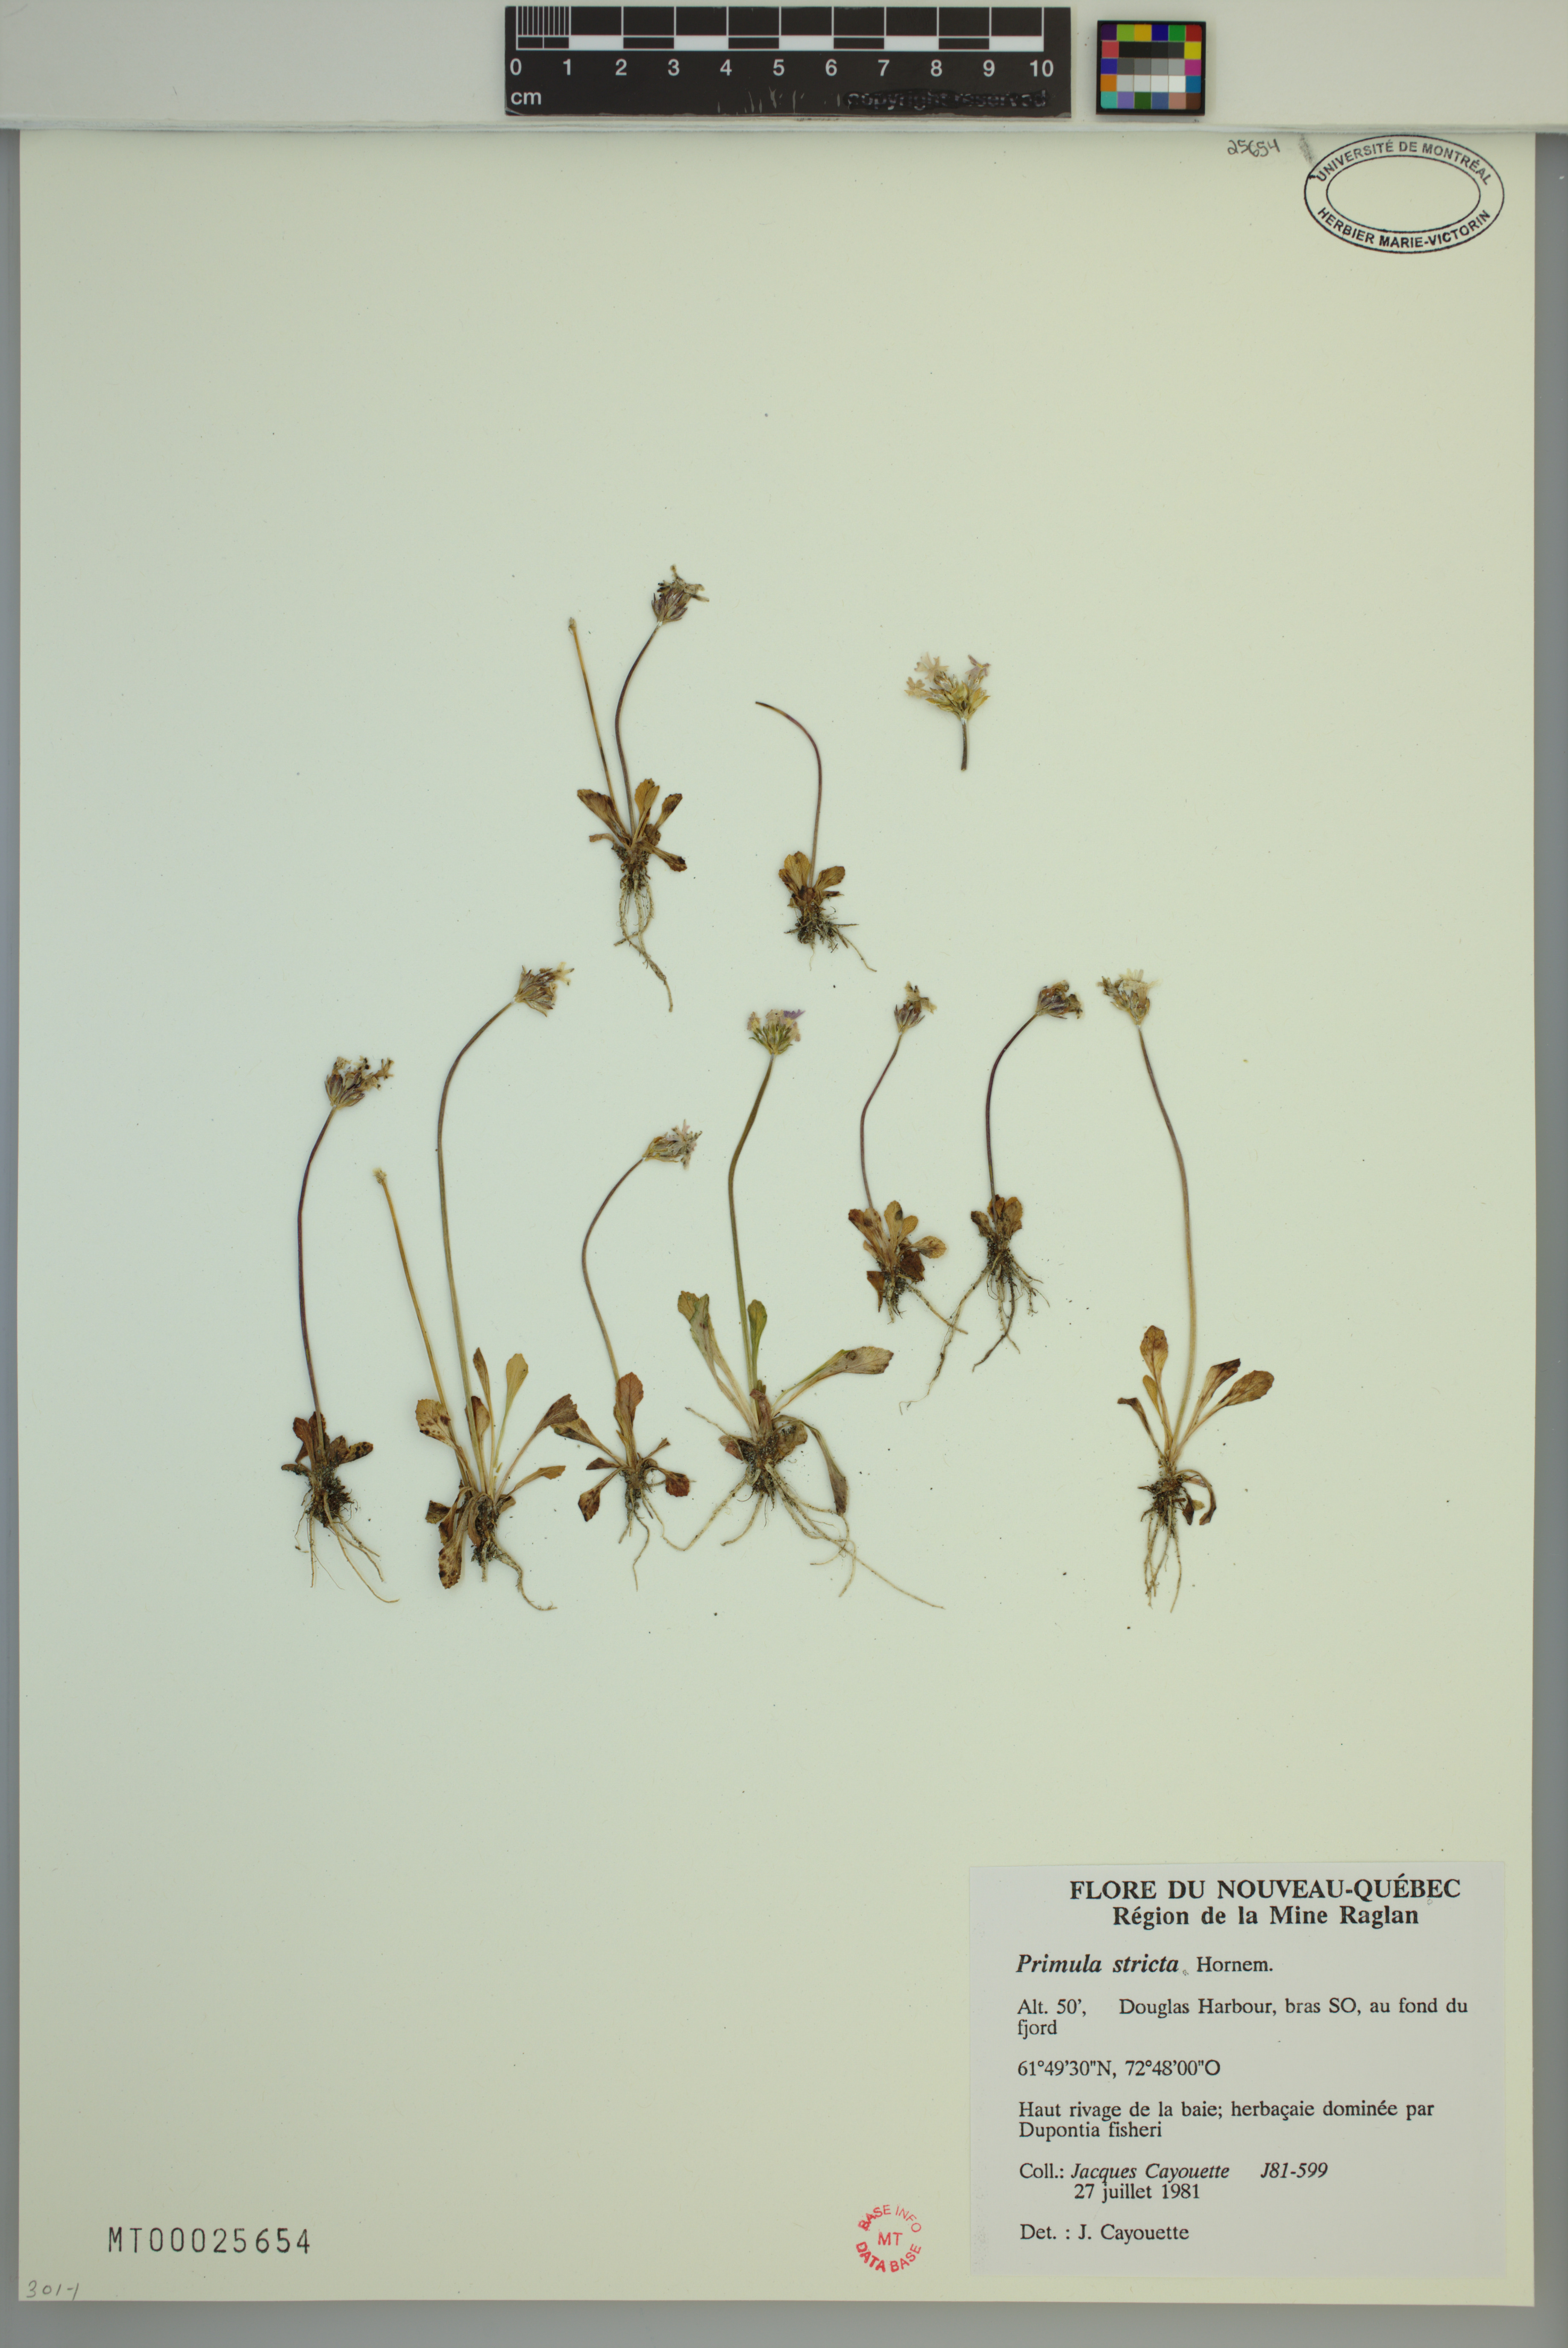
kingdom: Plantae
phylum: Tracheophyta
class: Magnoliopsida
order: Ericales
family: Primulaceae
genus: Primula
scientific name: Primula stricta
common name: Coastal primrose
